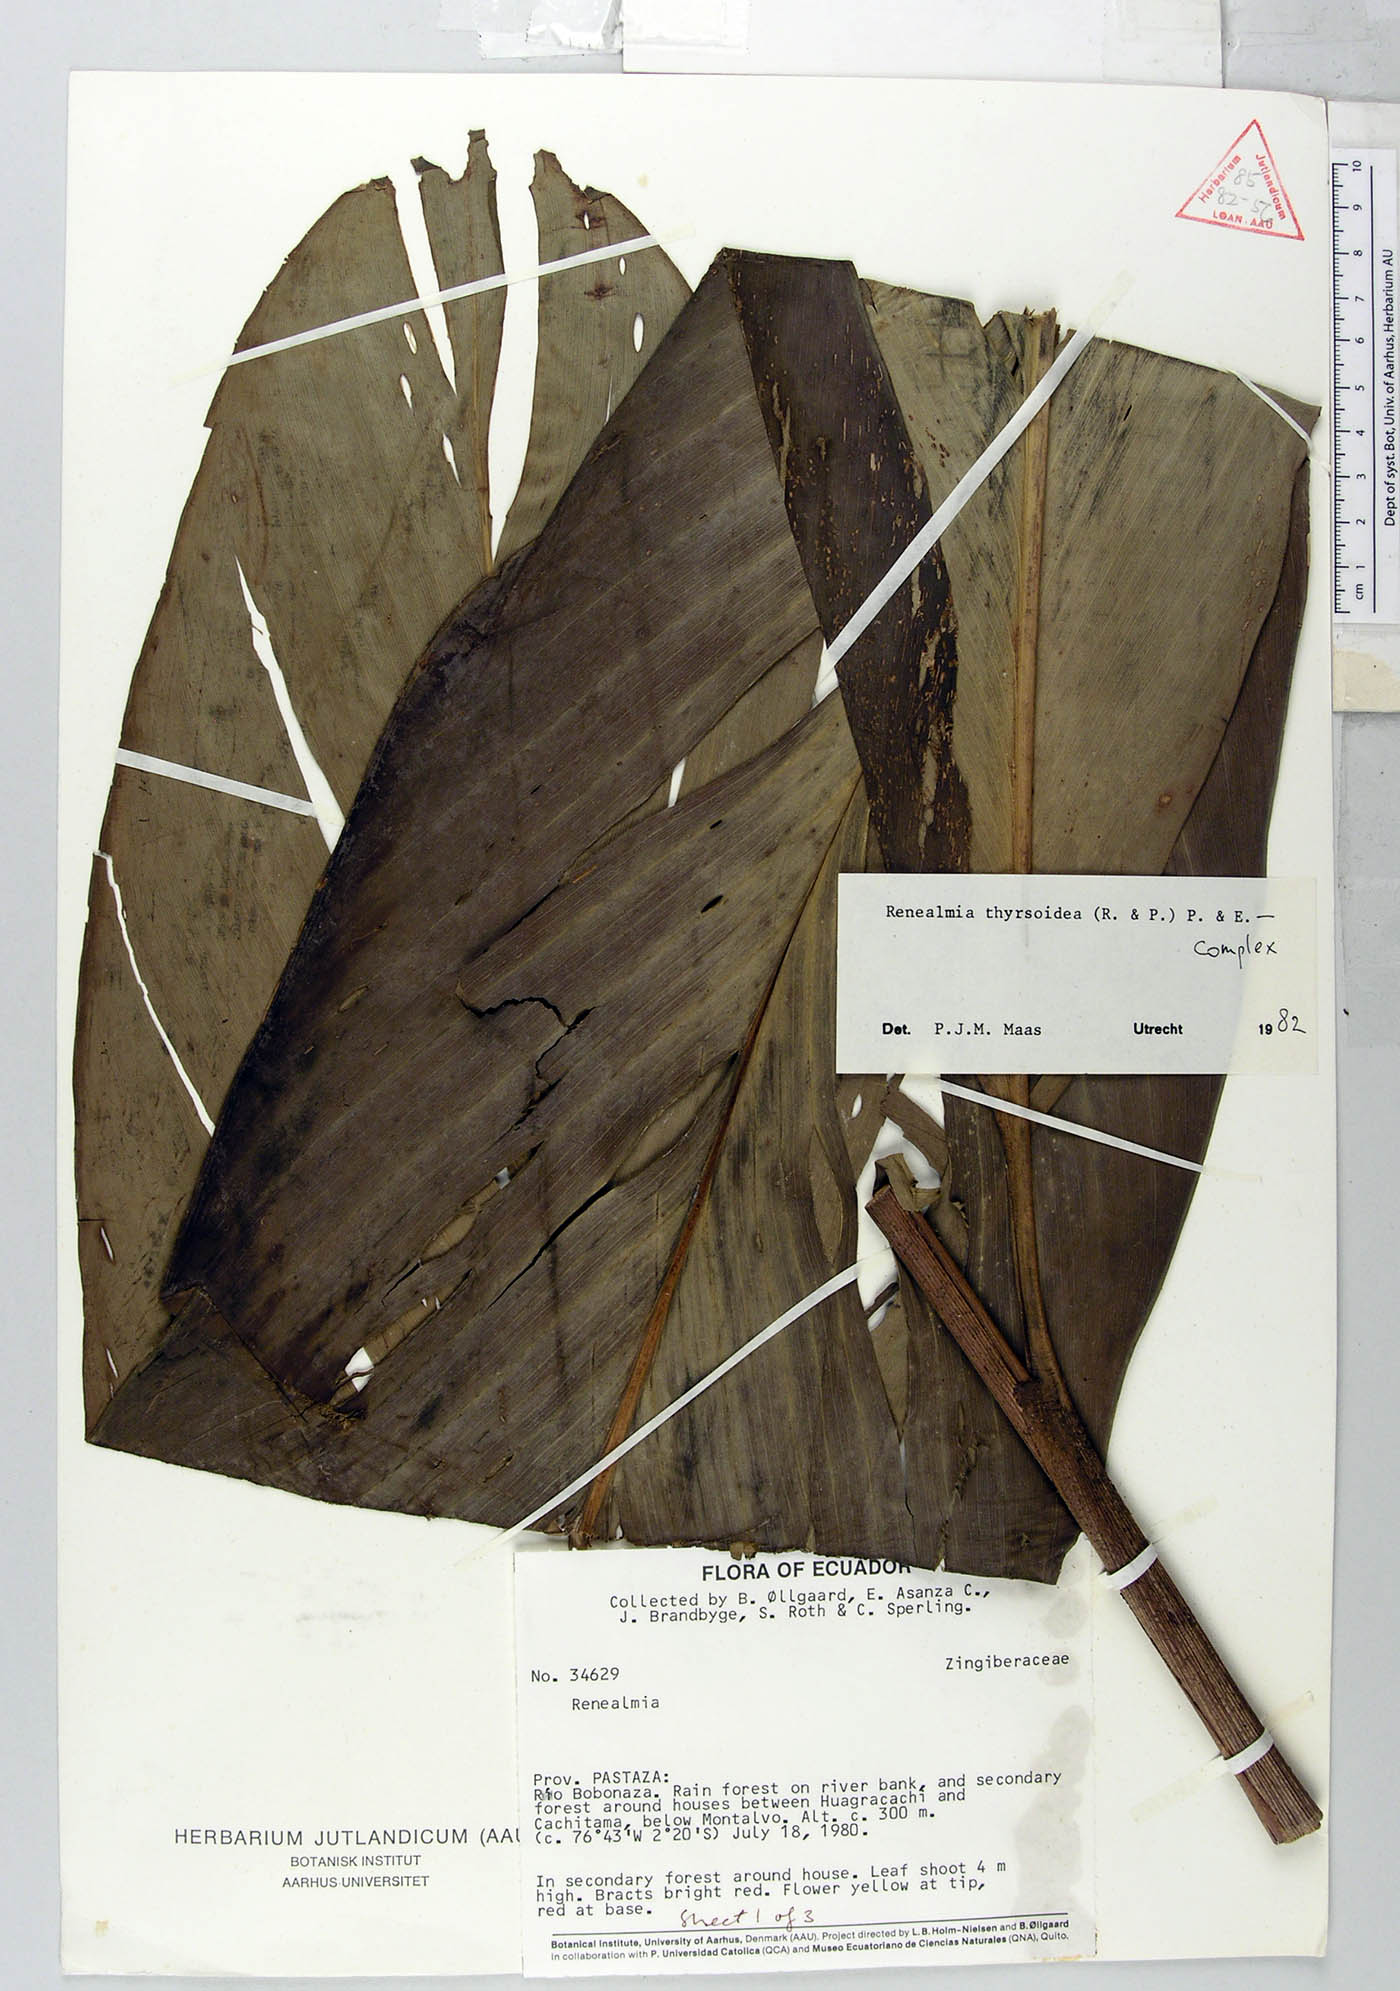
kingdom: Plantae
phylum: Tracheophyta
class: Liliopsida
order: Zingiberales
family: Zingiberaceae
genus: Renealmia
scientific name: Renealmia thyrsoidea
